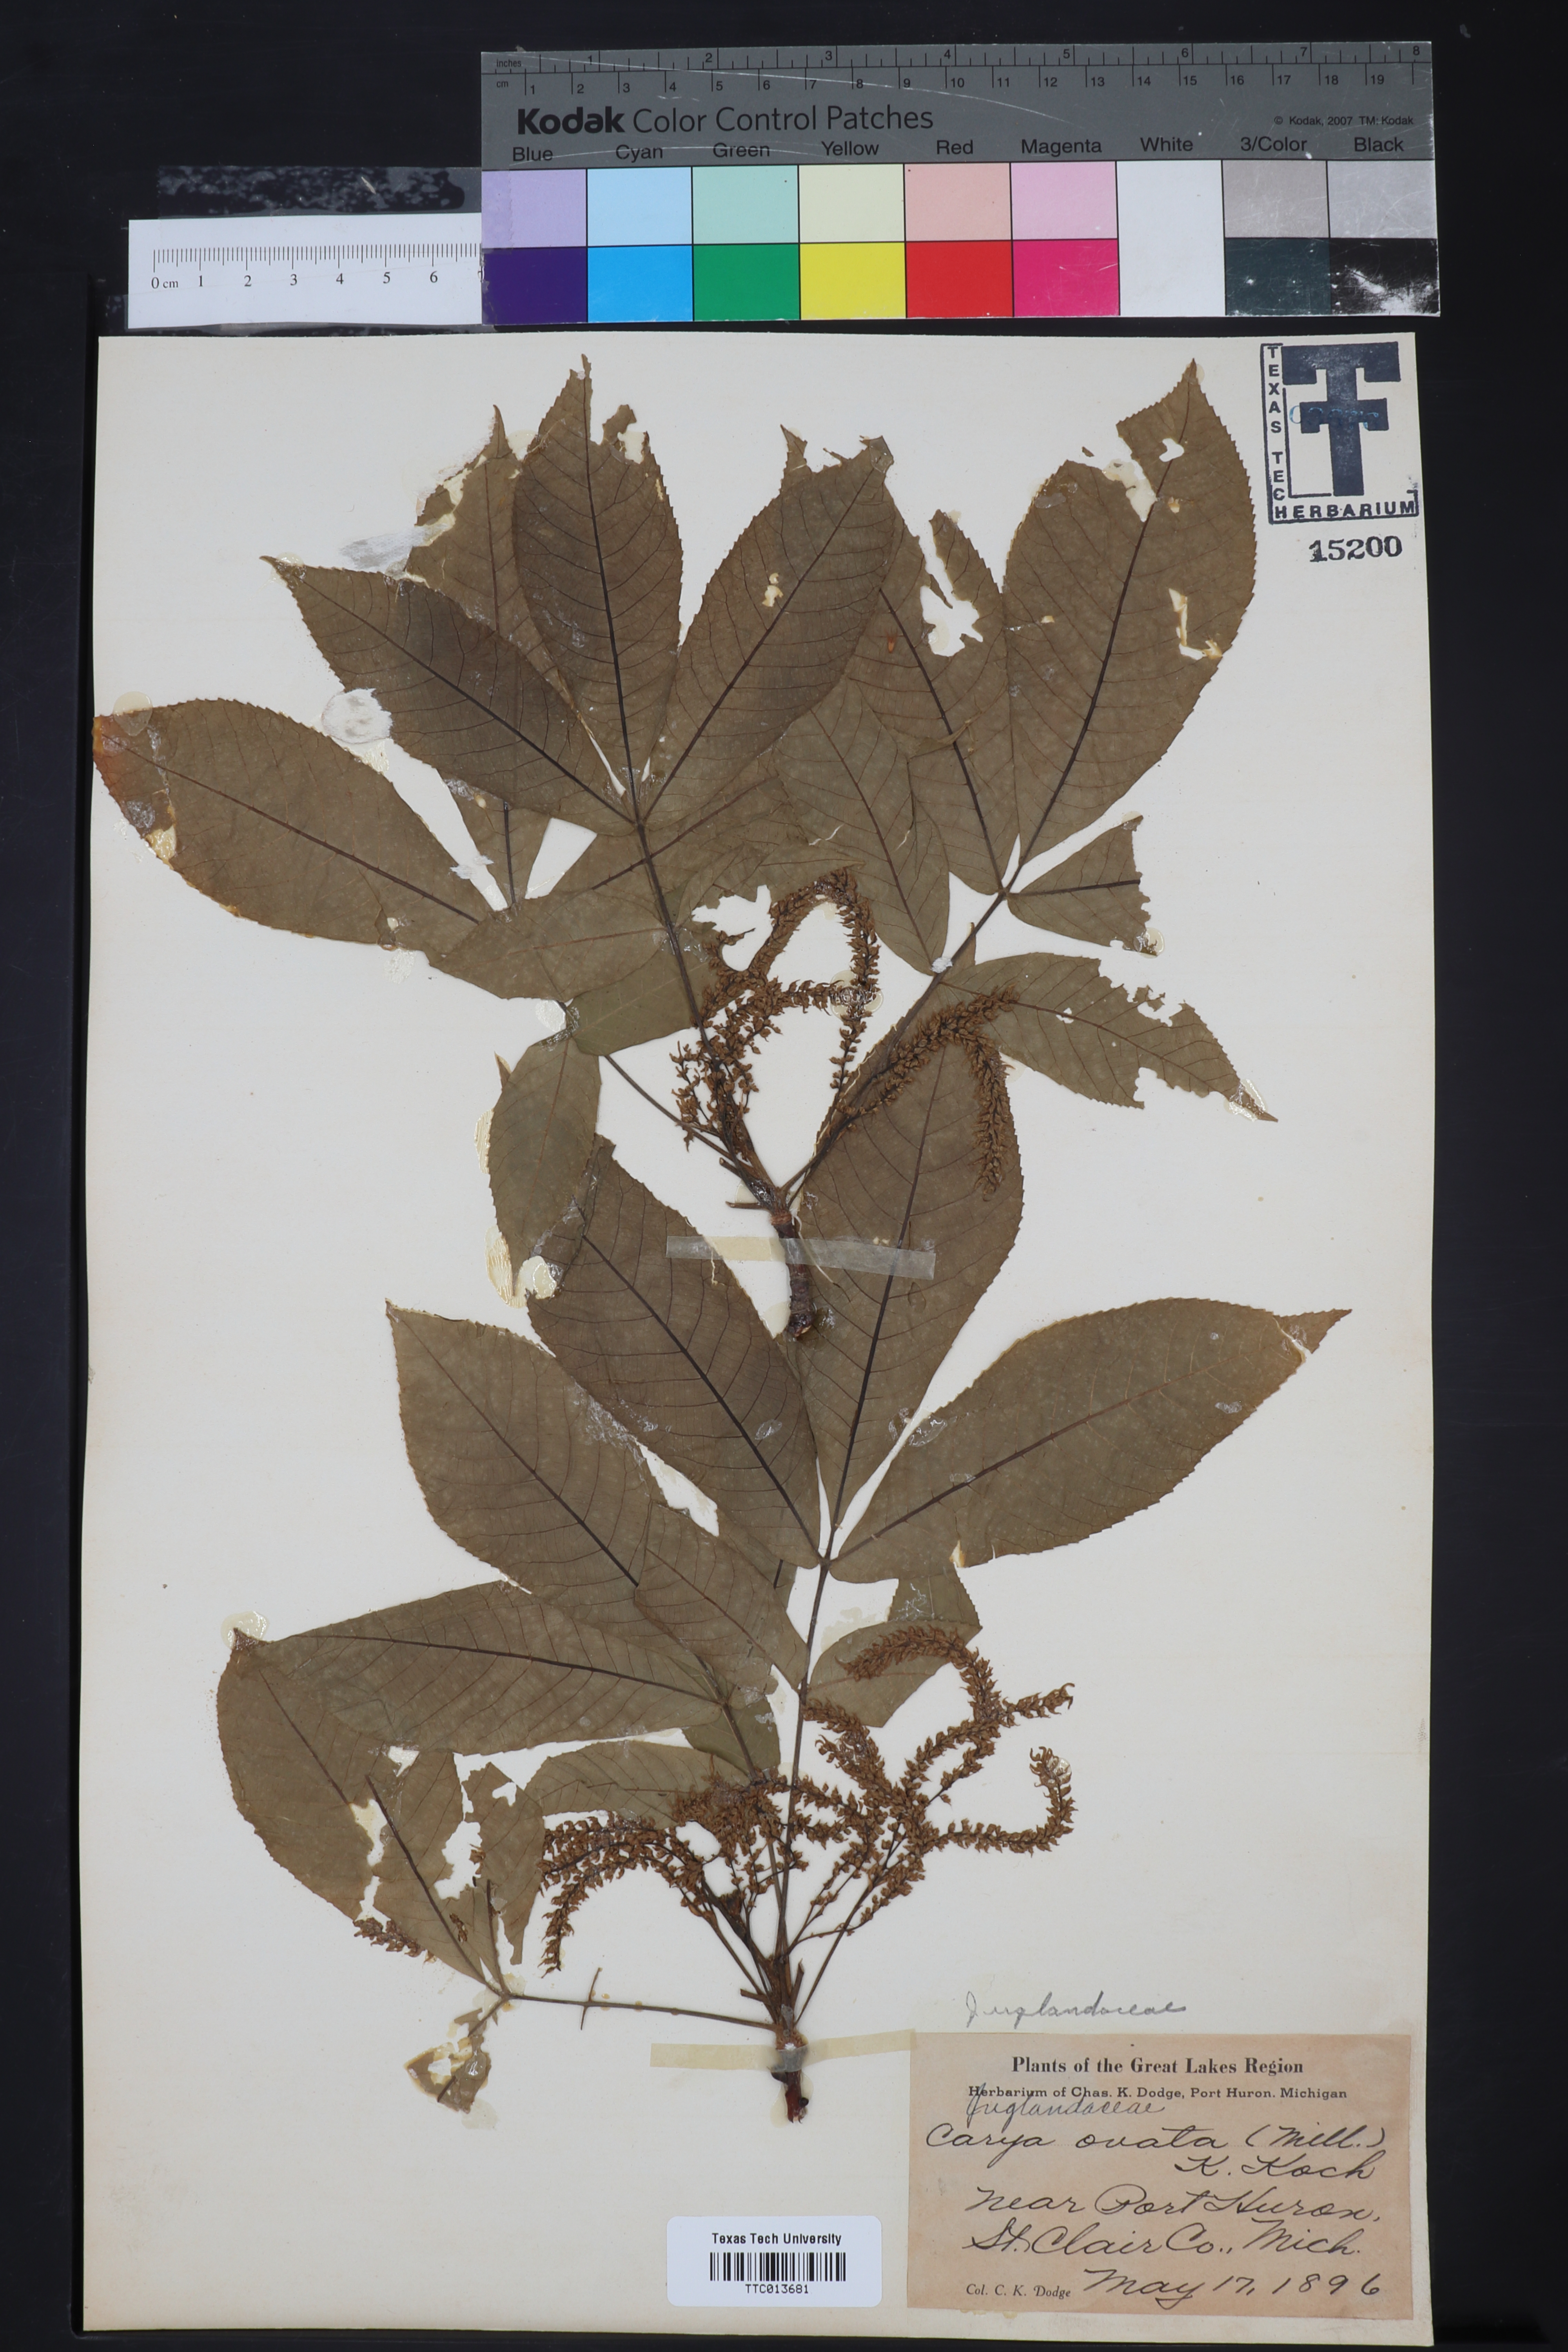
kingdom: Plantae
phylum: Tracheophyta
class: Magnoliopsida
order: Fagales
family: Juglandaceae
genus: Carya
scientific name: Carya glabra
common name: Pignut hickory
